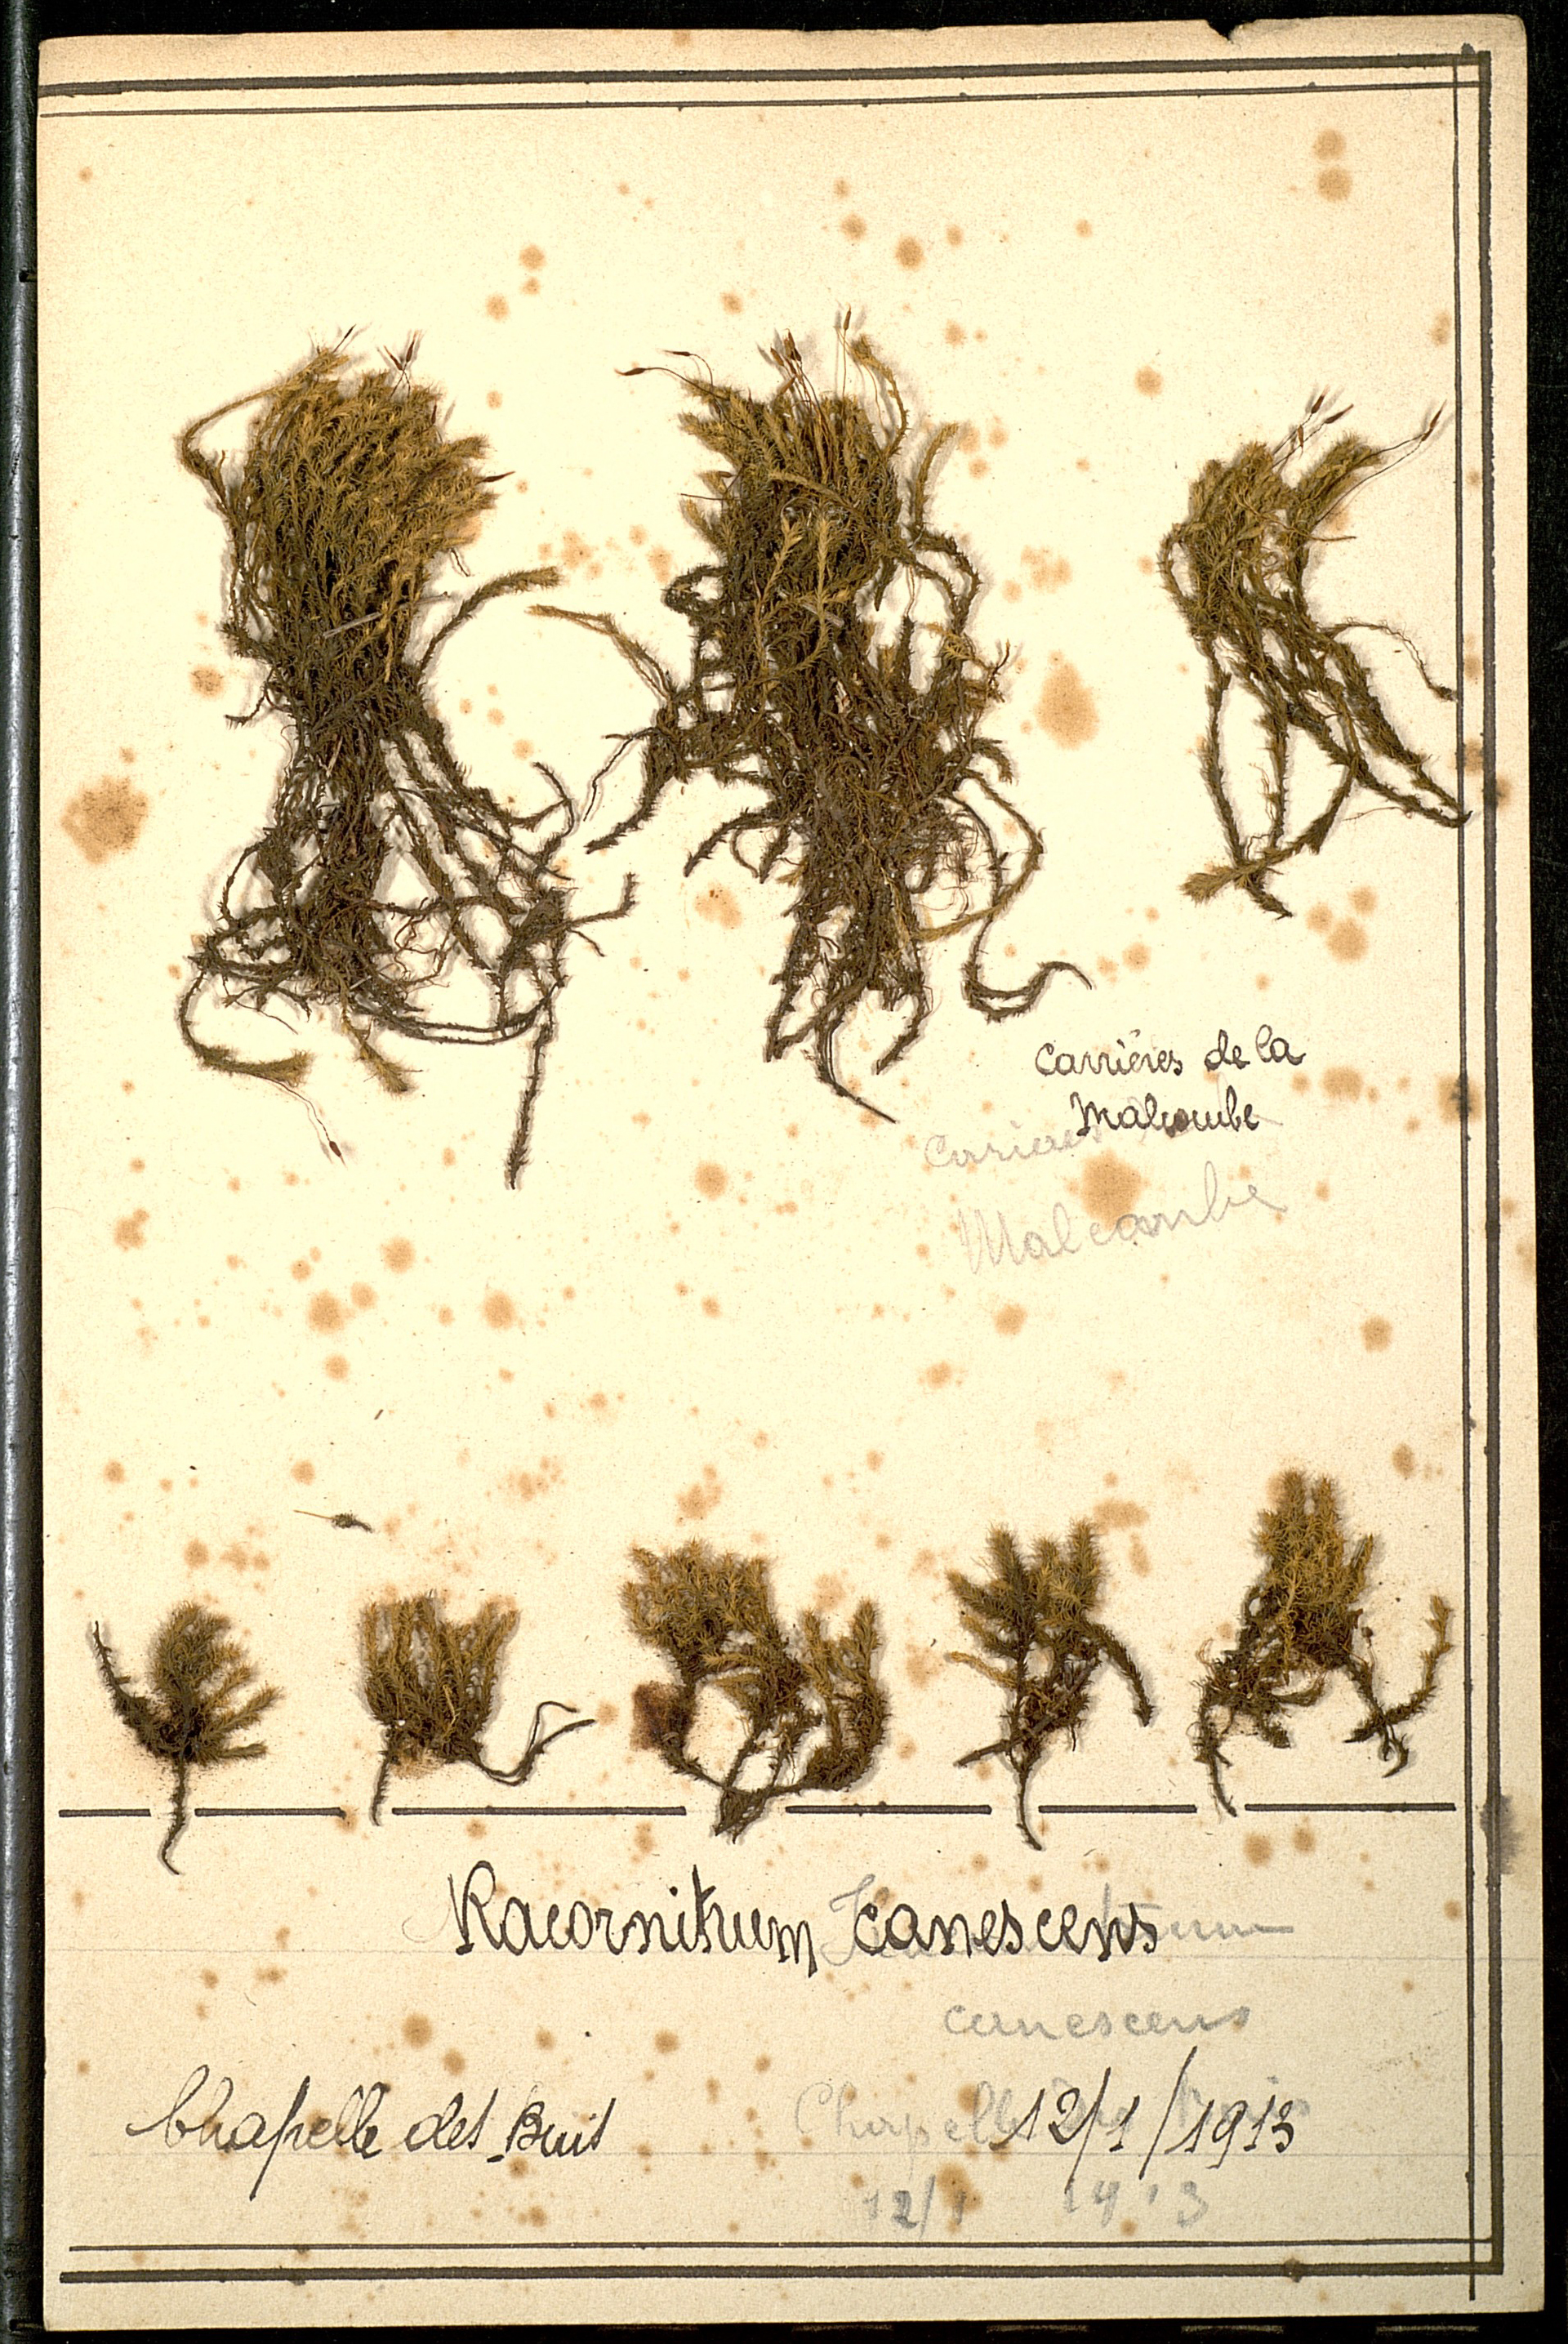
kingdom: Plantae
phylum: Bryophyta
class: Bryopsida
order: Grimmiales
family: Grimmiaceae
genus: Niphotrichum
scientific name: Niphotrichum canescens
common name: Hoary fringe-moss
